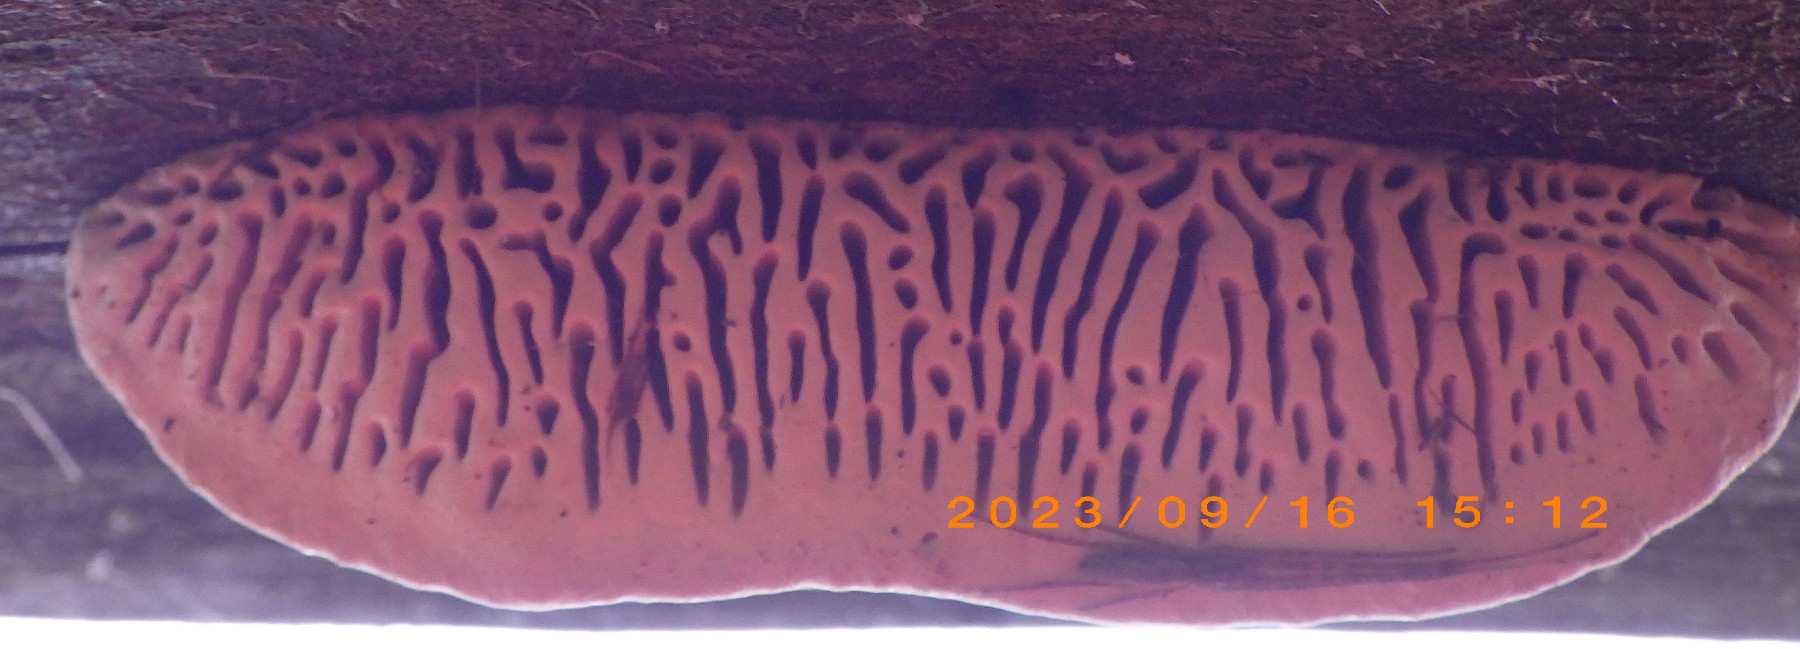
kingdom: Fungi
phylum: Basidiomycota
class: Agaricomycetes
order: Polyporales
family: Fomitopsidaceae
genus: Daedalea
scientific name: Daedalea quercina
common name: ege-labyrintsvamp
